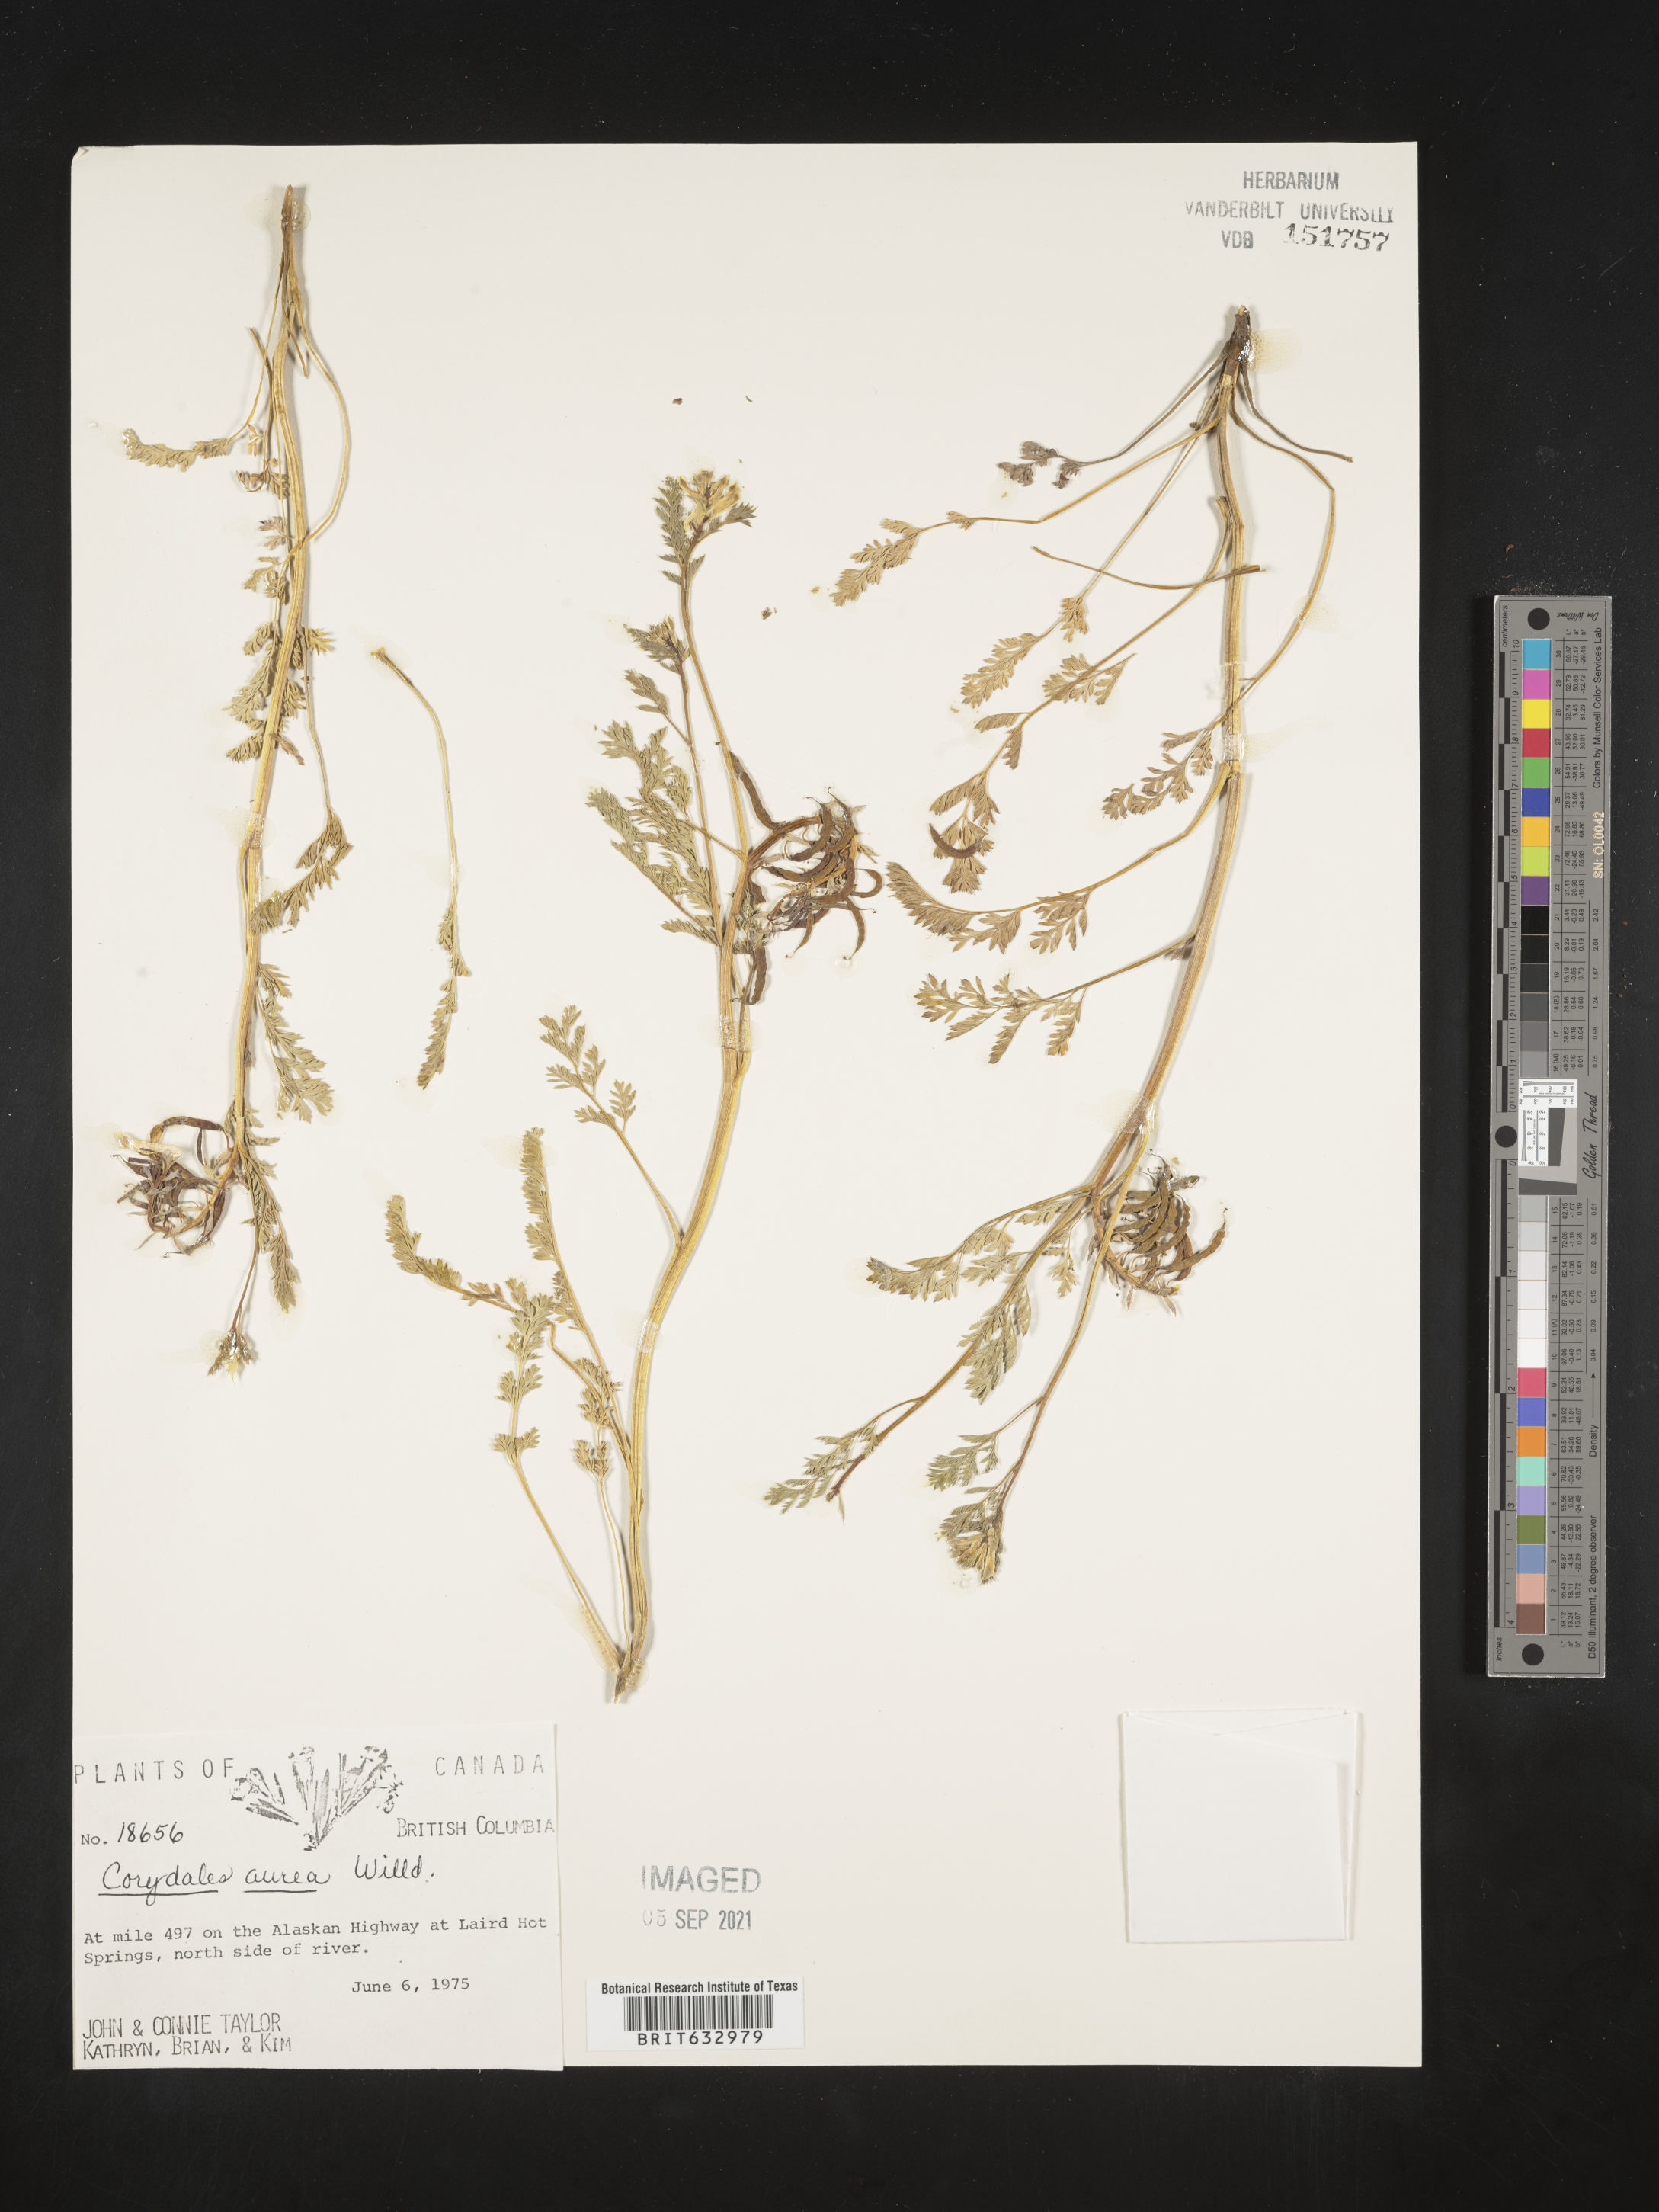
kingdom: Plantae
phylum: Tracheophyta
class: Magnoliopsida
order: Ranunculales
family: Papaveraceae
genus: Corydalis
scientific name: Corydalis
